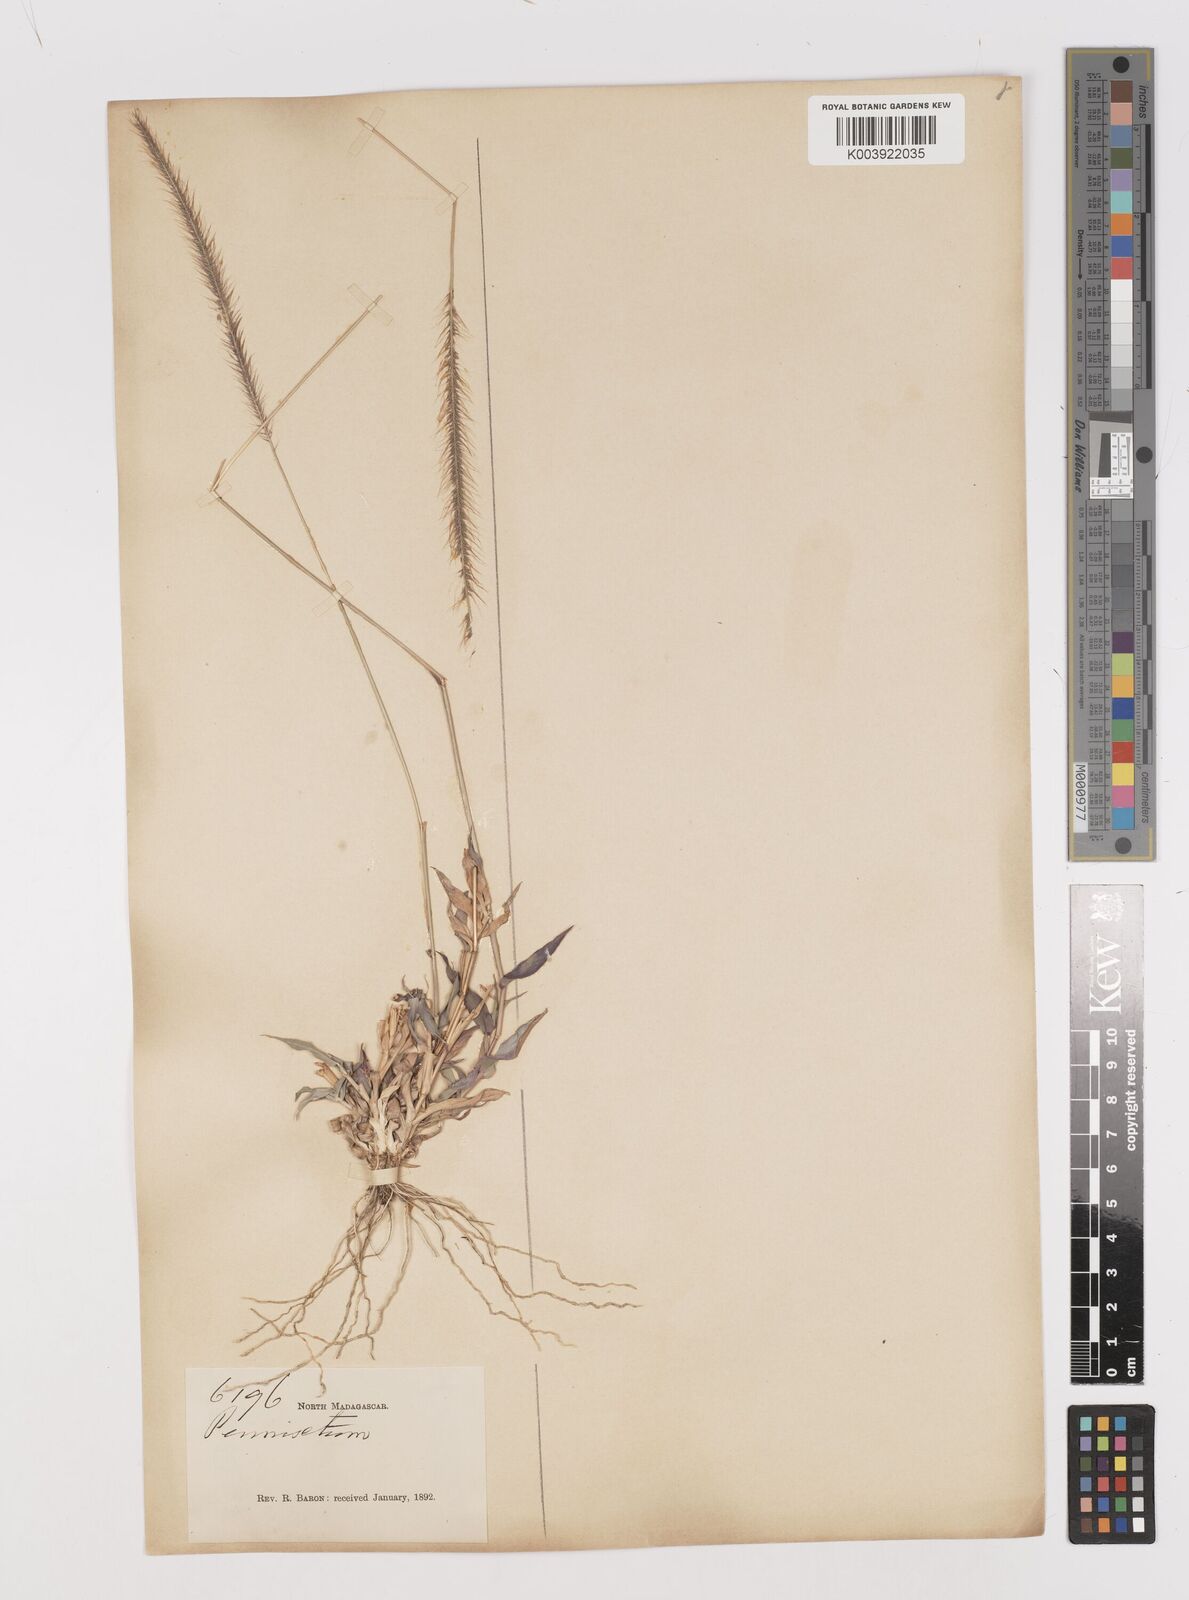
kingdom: Plantae
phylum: Tracheophyta
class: Liliopsida
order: Poales
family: Poaceae
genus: Perotis
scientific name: Perotis patens
